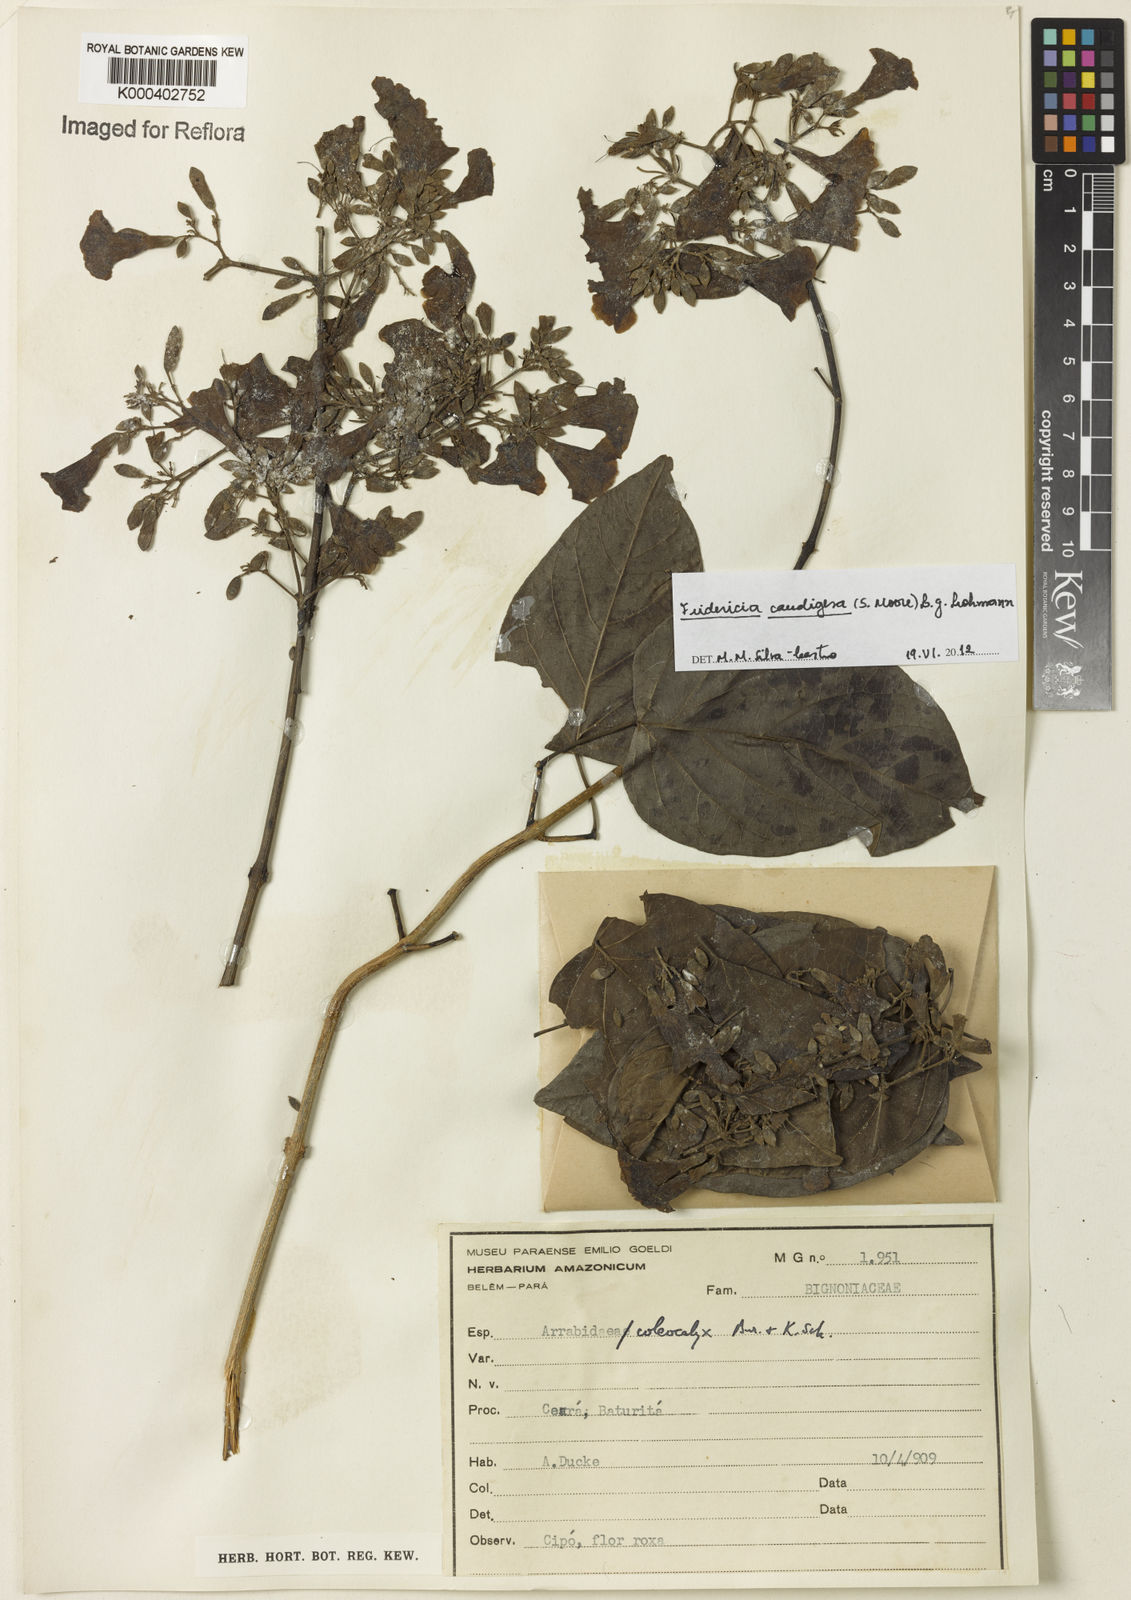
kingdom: Plantae
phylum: Tracheophyta
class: Magnoliopsida
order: Lamiales
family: Bignoniaceae
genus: Fridericia
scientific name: Fridericia caudigera
